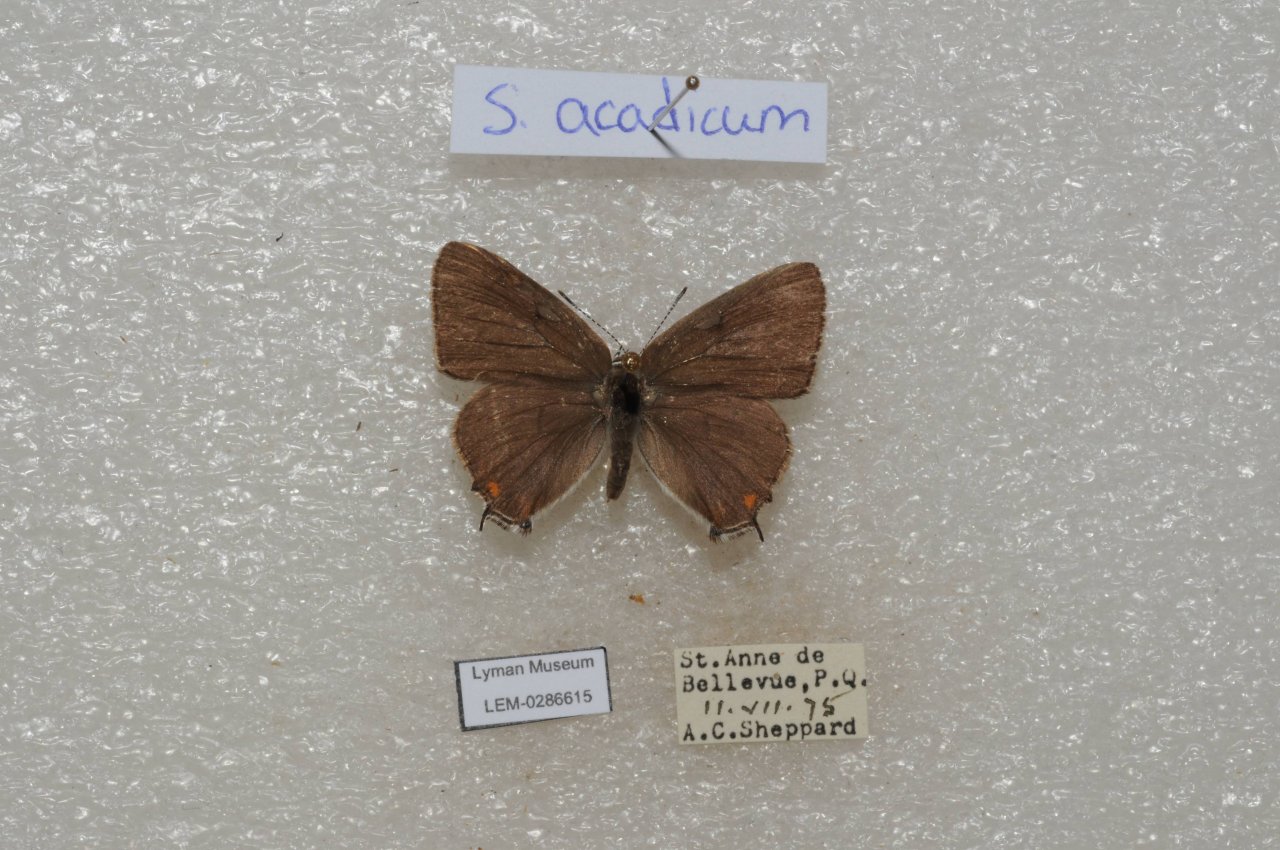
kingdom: Animalia
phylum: Arthropoda
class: Insecta
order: Lepidoptera
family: Lycaenidae
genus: Strymon
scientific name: Strymon acadica
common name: Acadian Hairstreak
